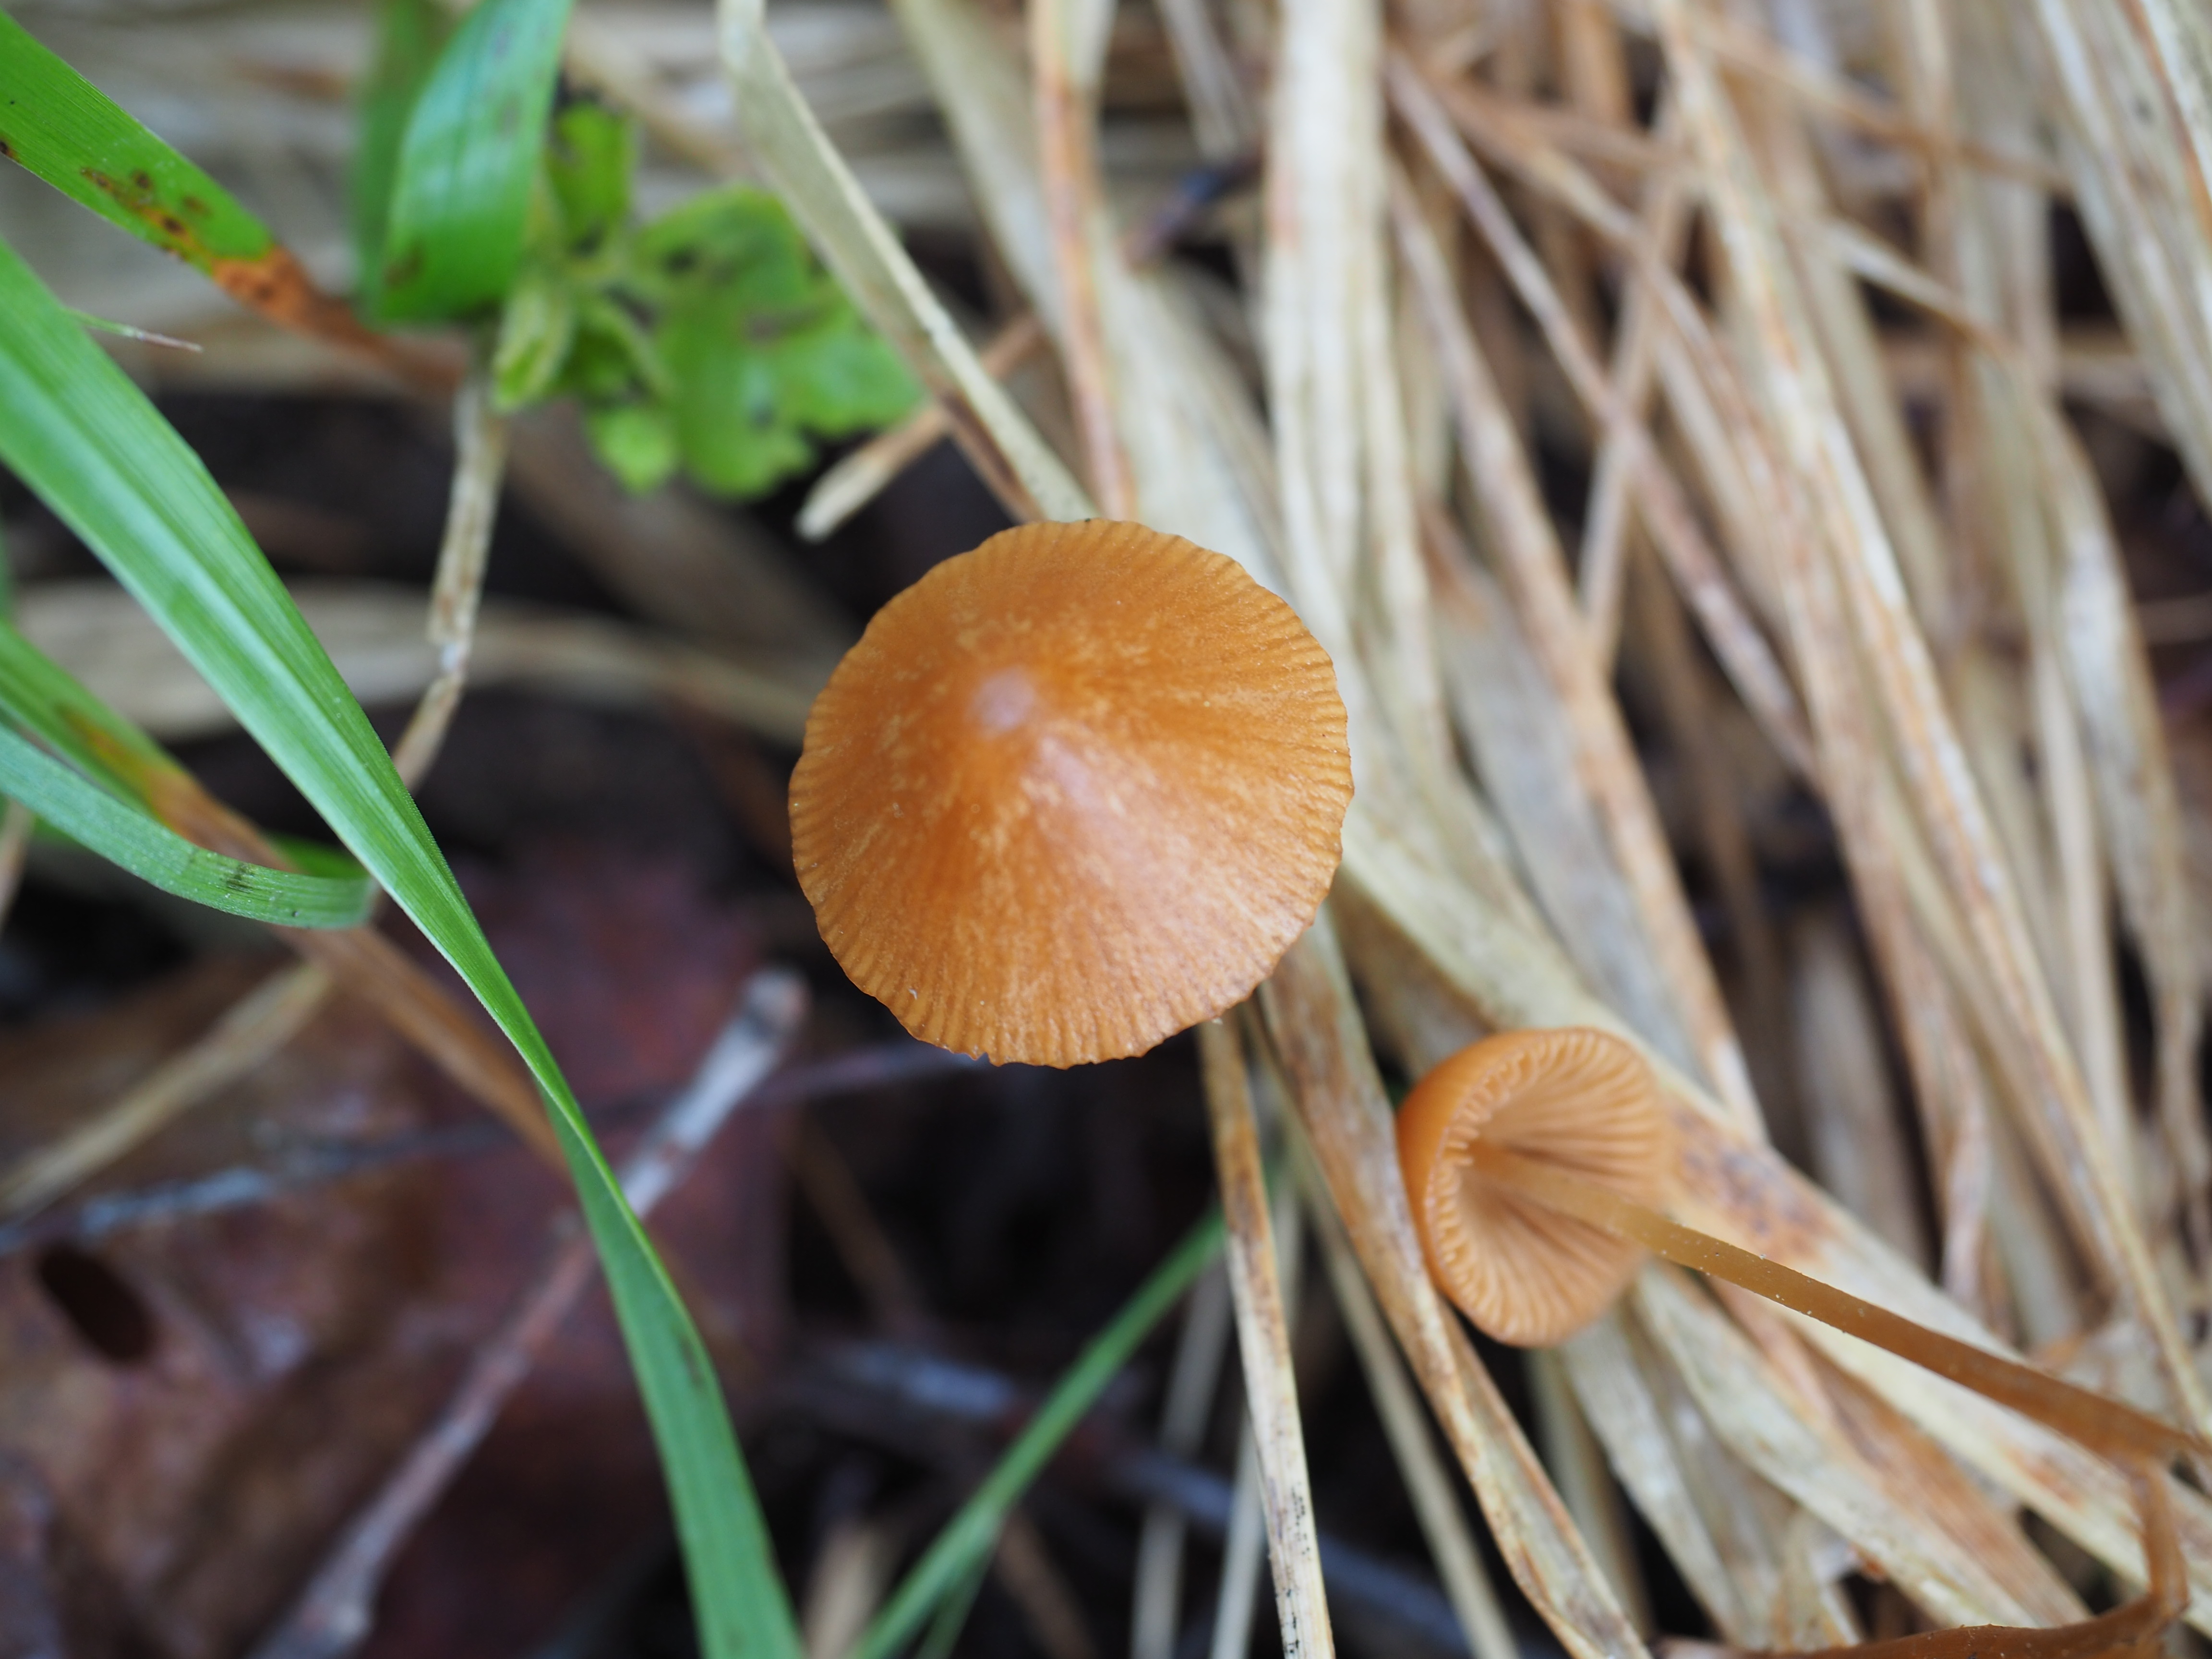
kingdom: Fungi
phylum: Basidiomycota
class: Agaricomycetes
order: Agaricales
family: Bolbitiaceae
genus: Conocybe
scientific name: Conocybe watlingii
